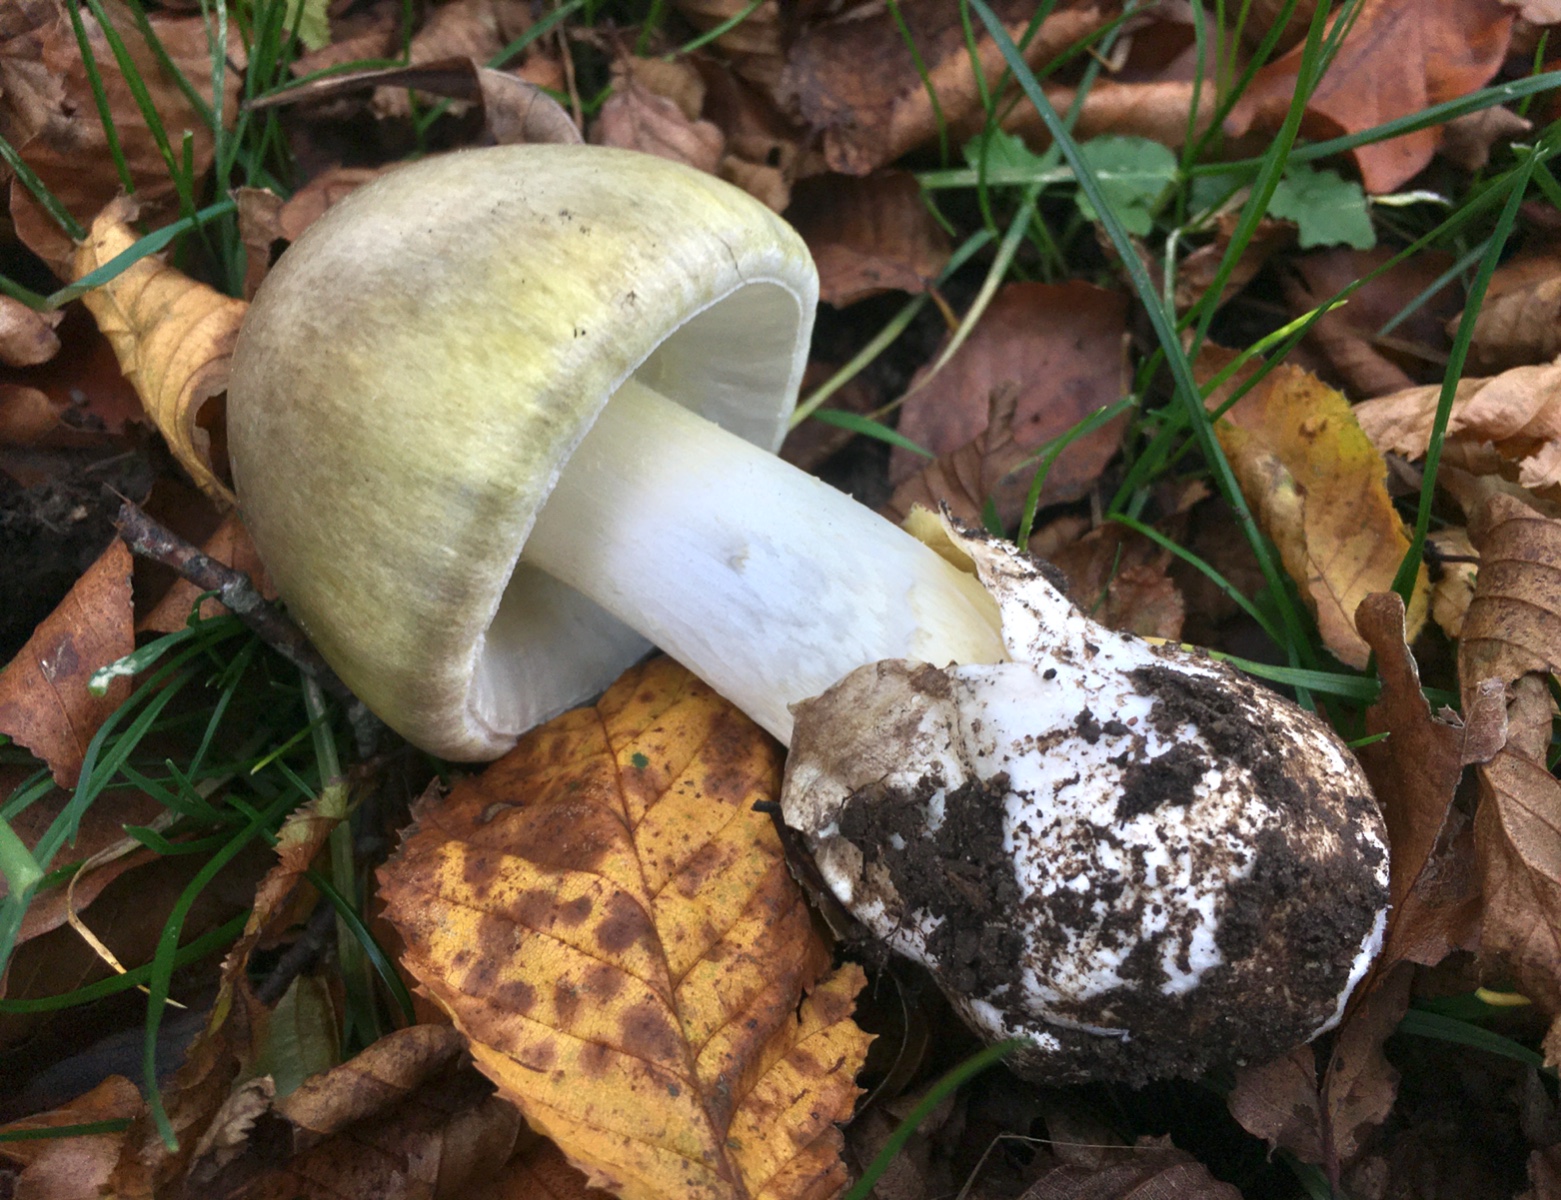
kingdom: Fungi
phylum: Basidiomycota
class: Agaricomycetes
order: Agaricales
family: Amanitaceae
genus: Amanita
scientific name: Amanita phalloides
